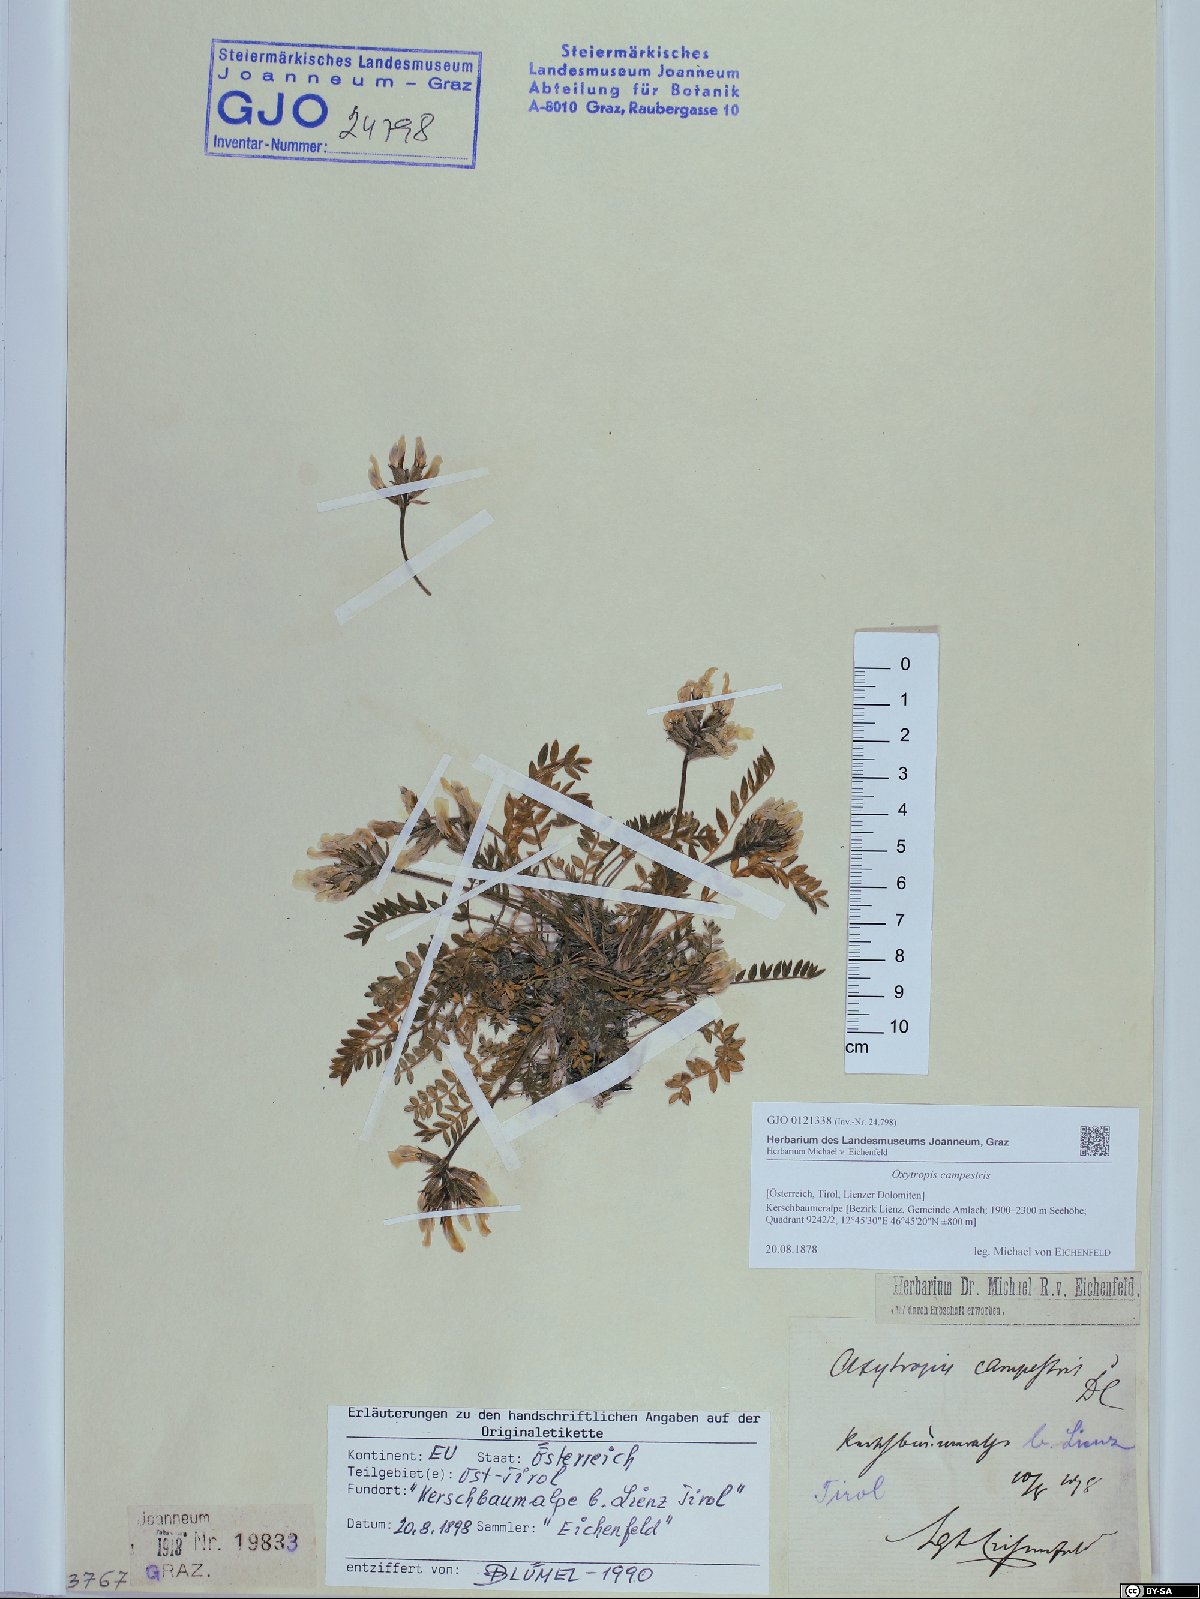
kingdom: Plantae
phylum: Tracheophyta
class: Magnoliopsida
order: Fabales
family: Fabaceae
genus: Oxytropis
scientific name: Oxytropis campestris
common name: Field locoweed
